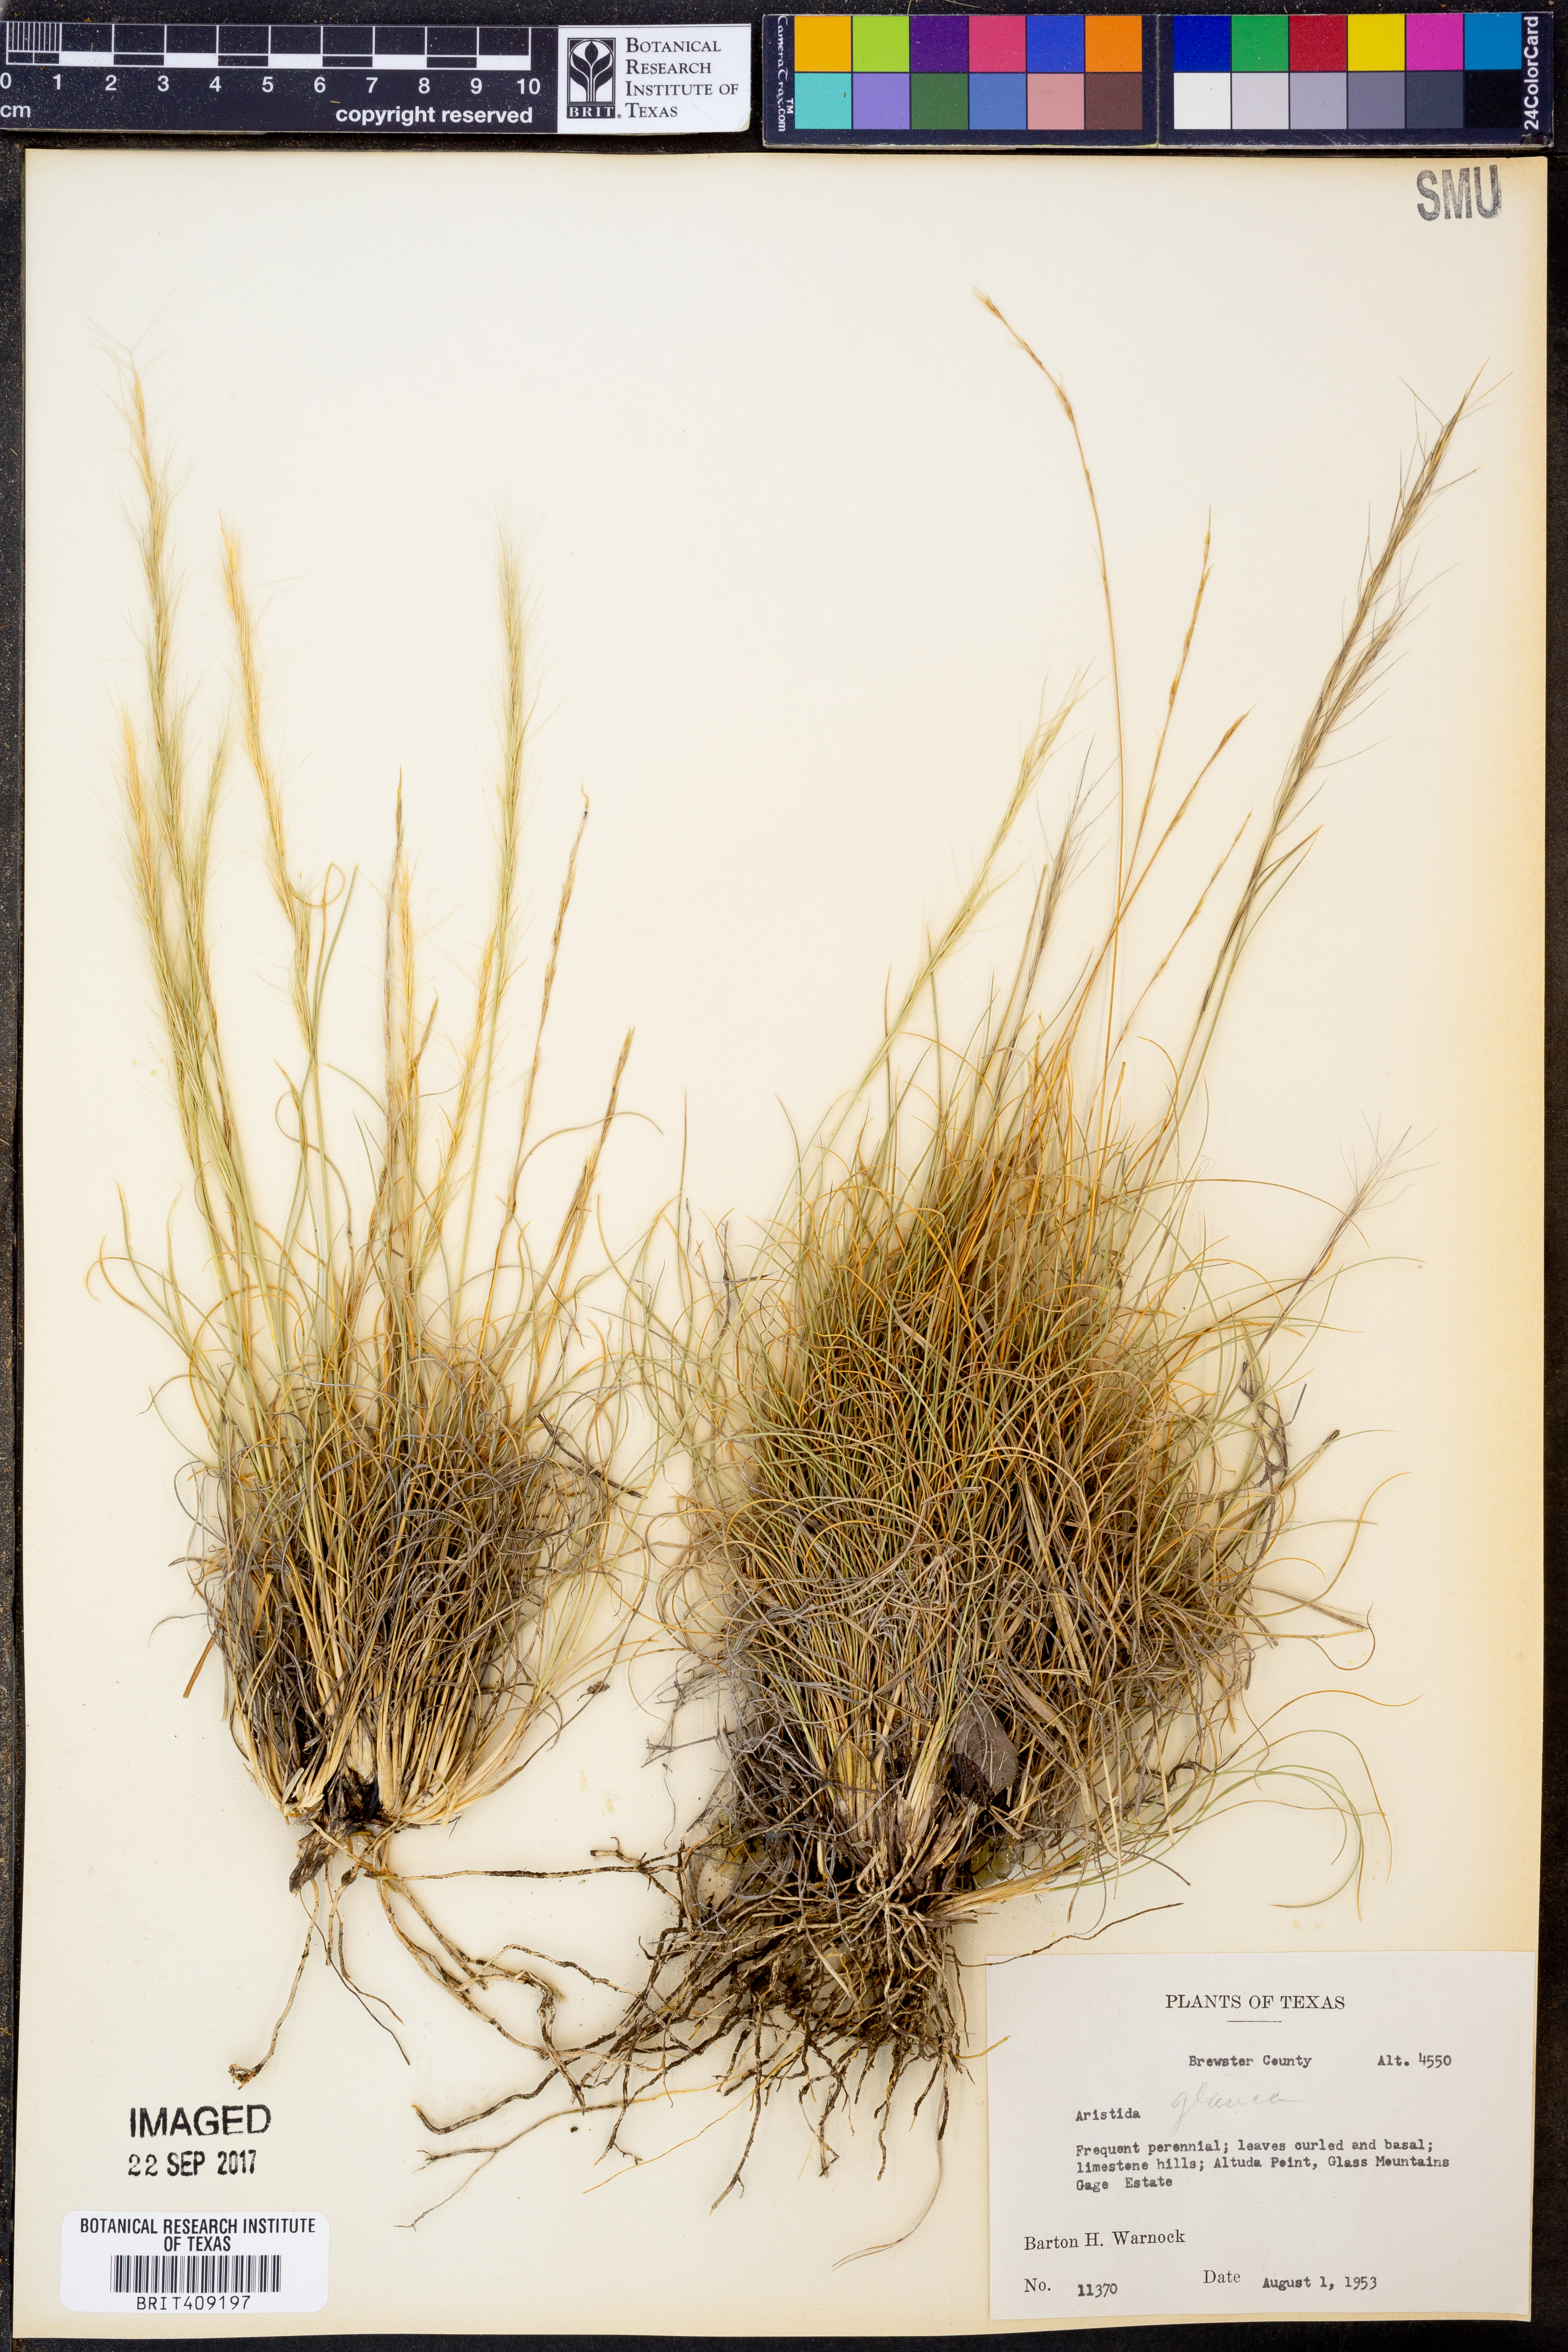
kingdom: Plantae
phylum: Tracheophyta
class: Liliopsida
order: Poales
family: Poaceae
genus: Aristida
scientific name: Aristida glauca
